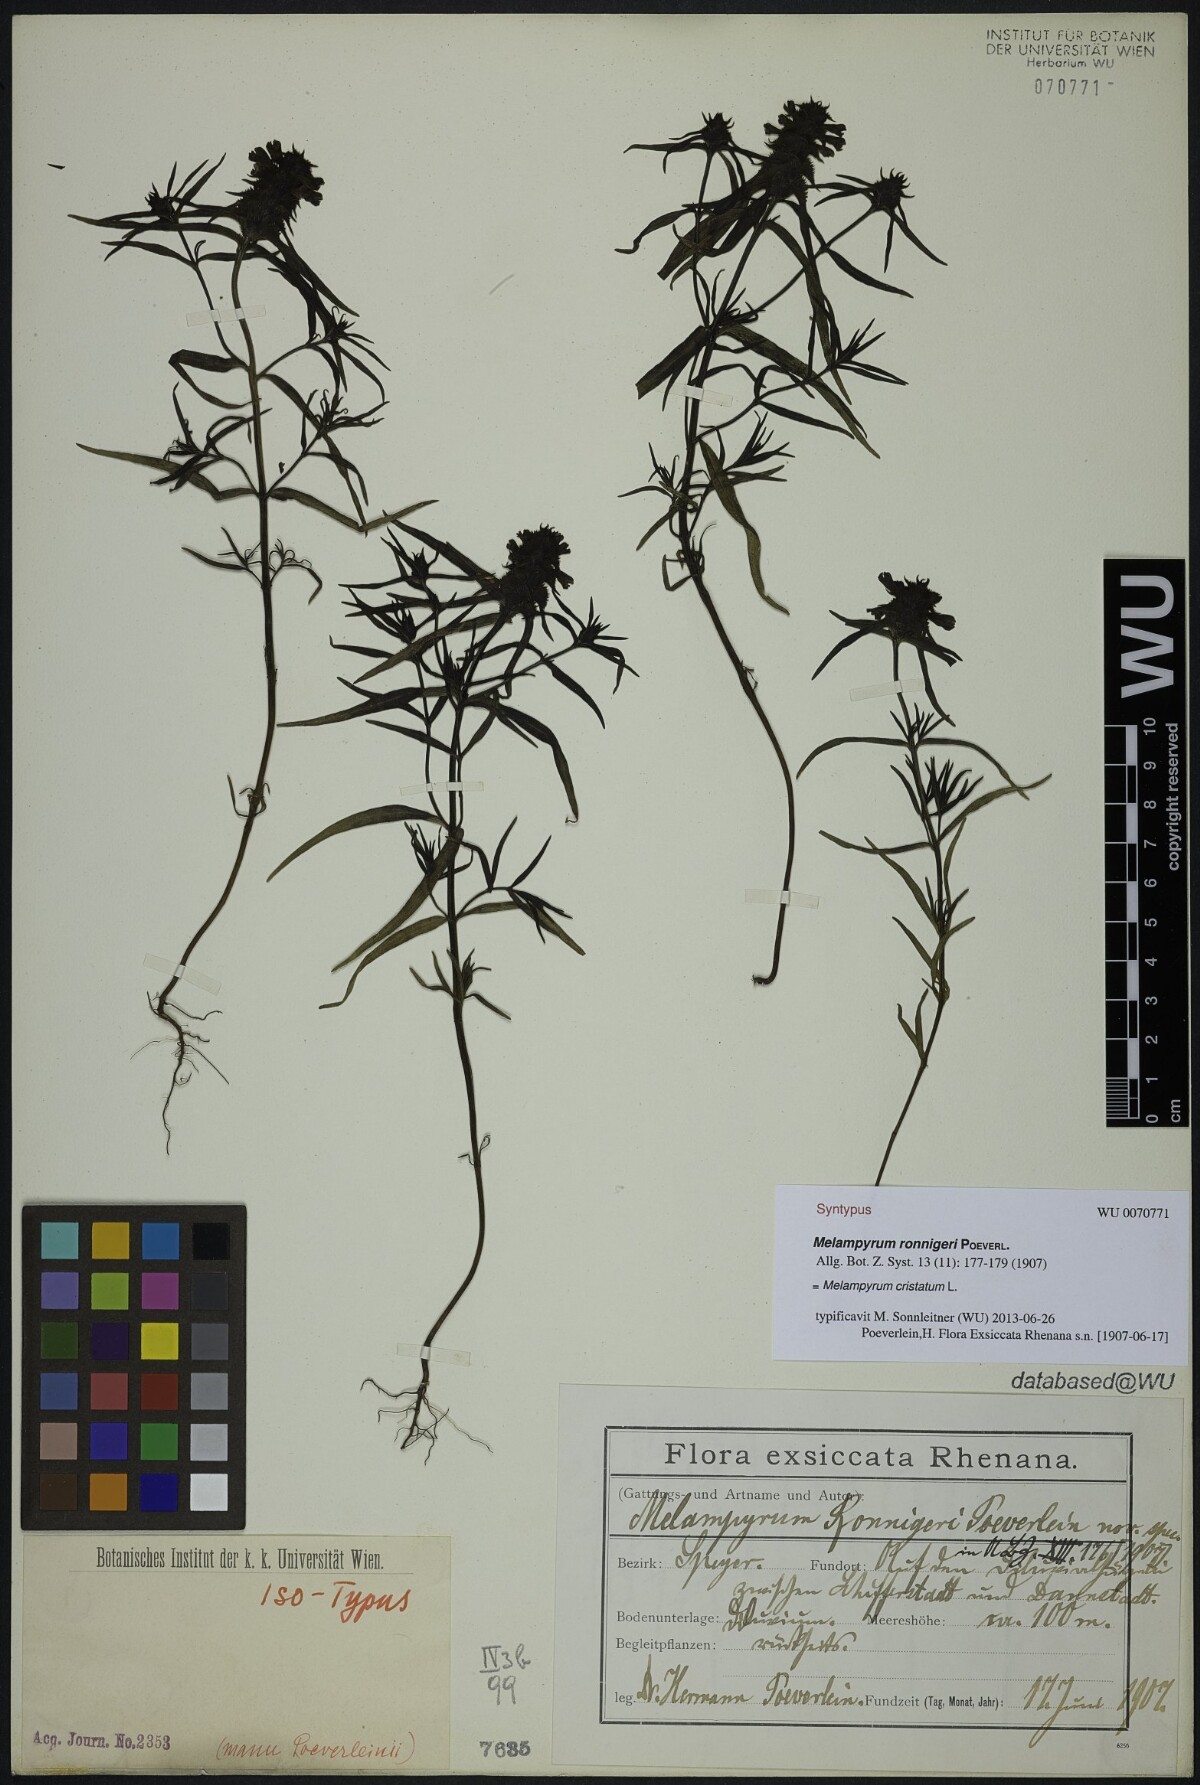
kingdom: Plantae
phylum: Tracheophyta
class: Magnoliopsida
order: Lamiales
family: Orobanchaceae
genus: Melampyrum
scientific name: Melampyrum cristatum
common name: Crested cow-wheat
